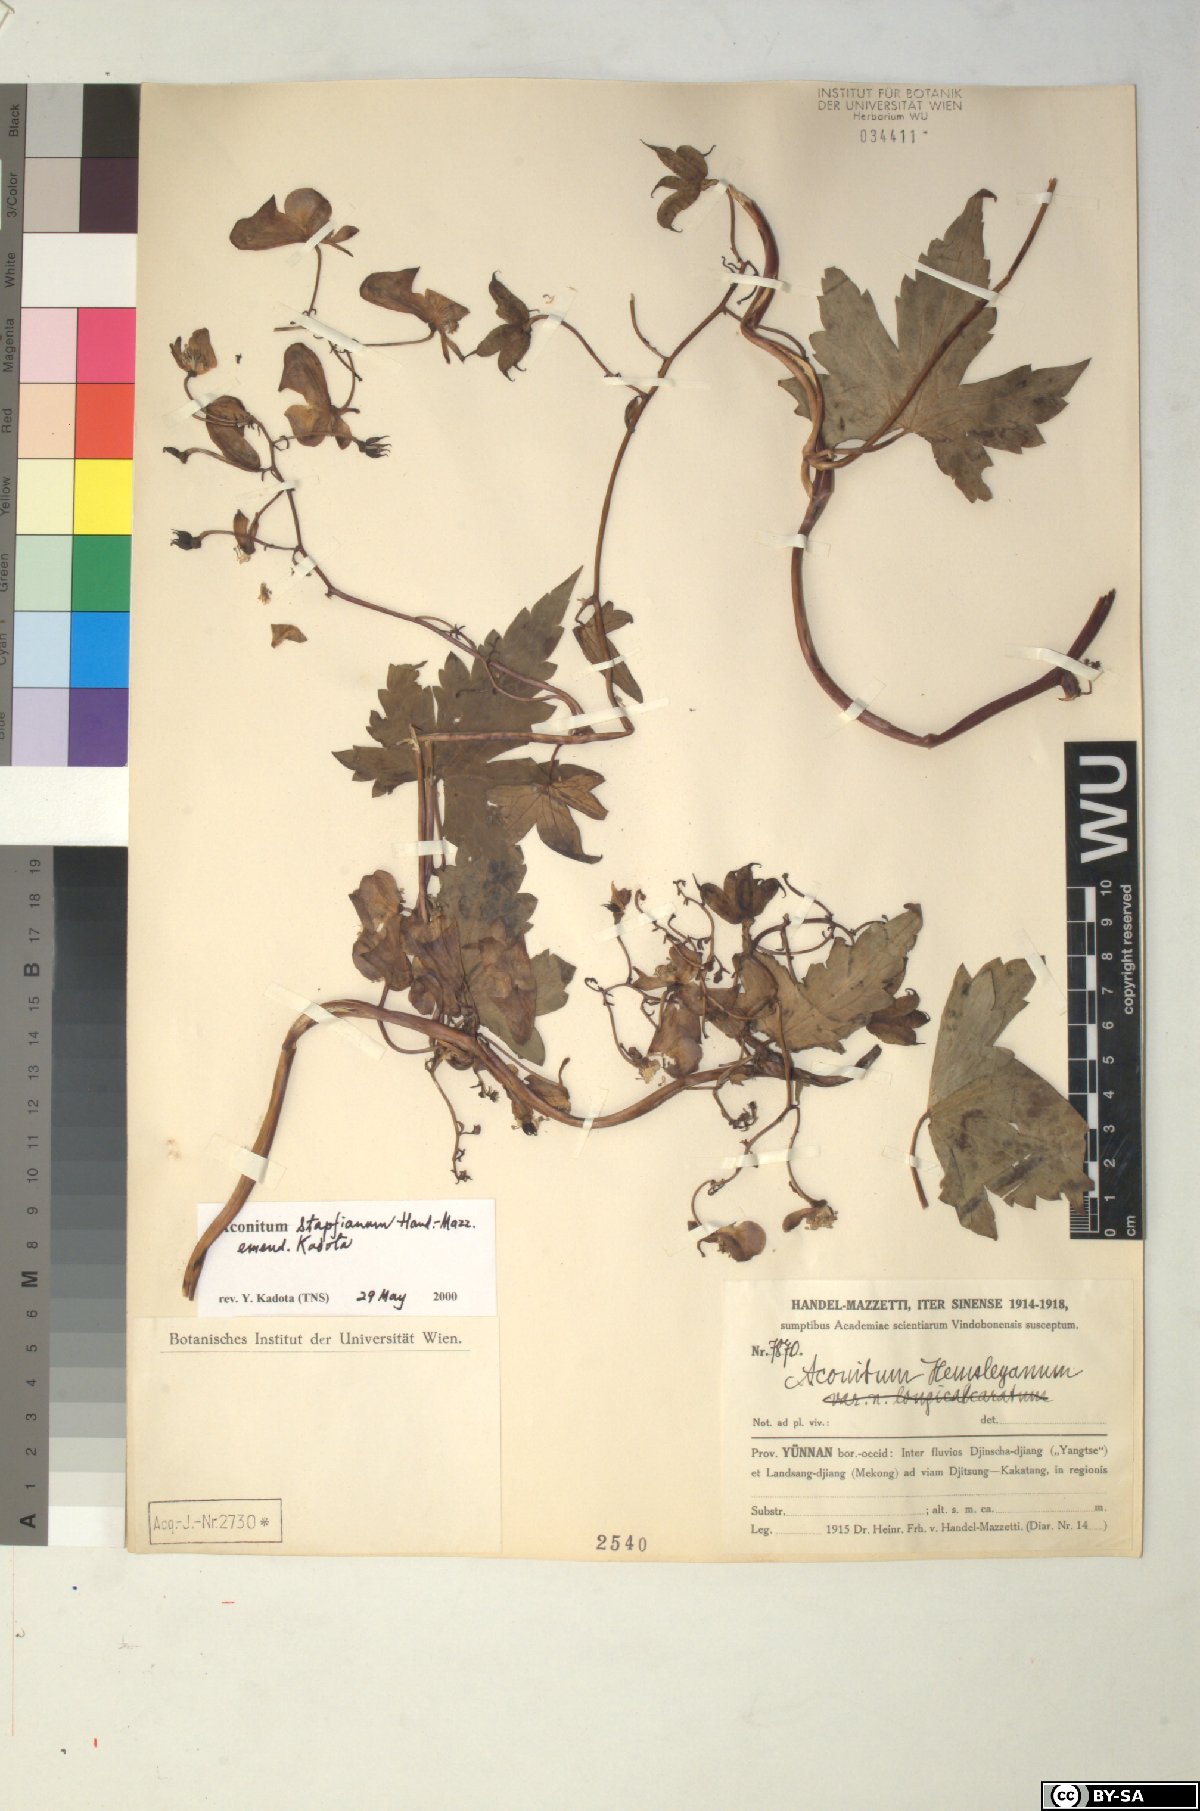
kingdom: Plantae
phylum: Tracheophyta
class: Magnoliopsida
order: Ranunculales
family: Ranunculaceae
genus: Aconitum
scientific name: Aconitum stapfianum
